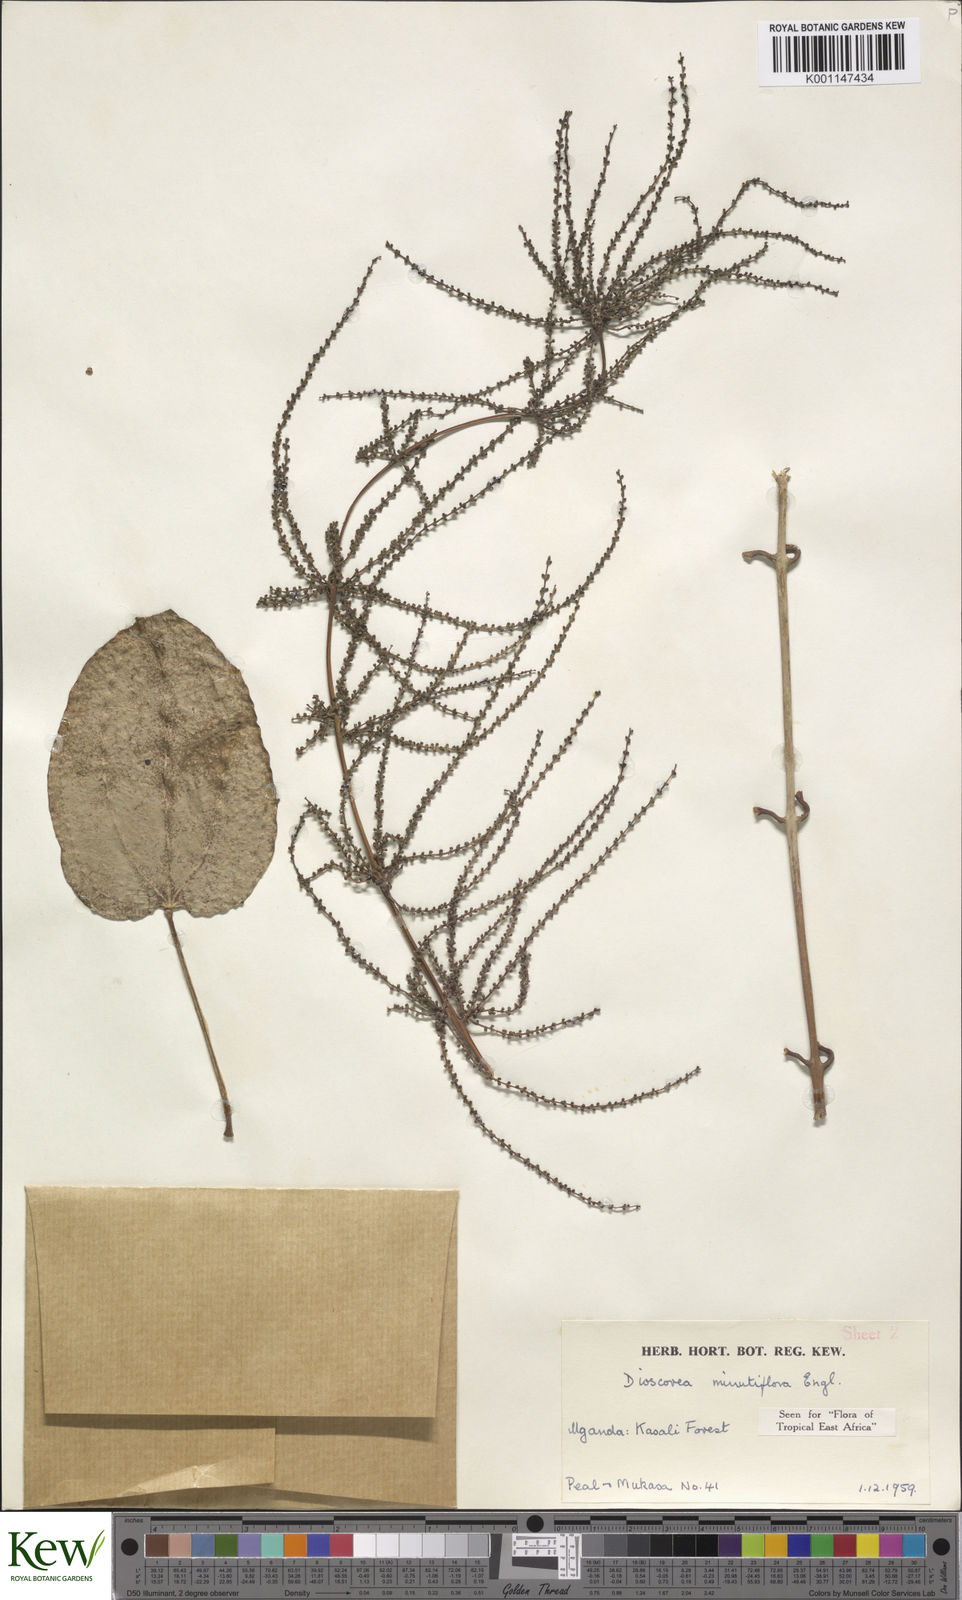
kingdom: Plantae
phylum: Tracheophyta
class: Liliopsida
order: Dioscoreales
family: Dioscoreaceae
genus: Dioscorea
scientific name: Dioscorea minutiflora
